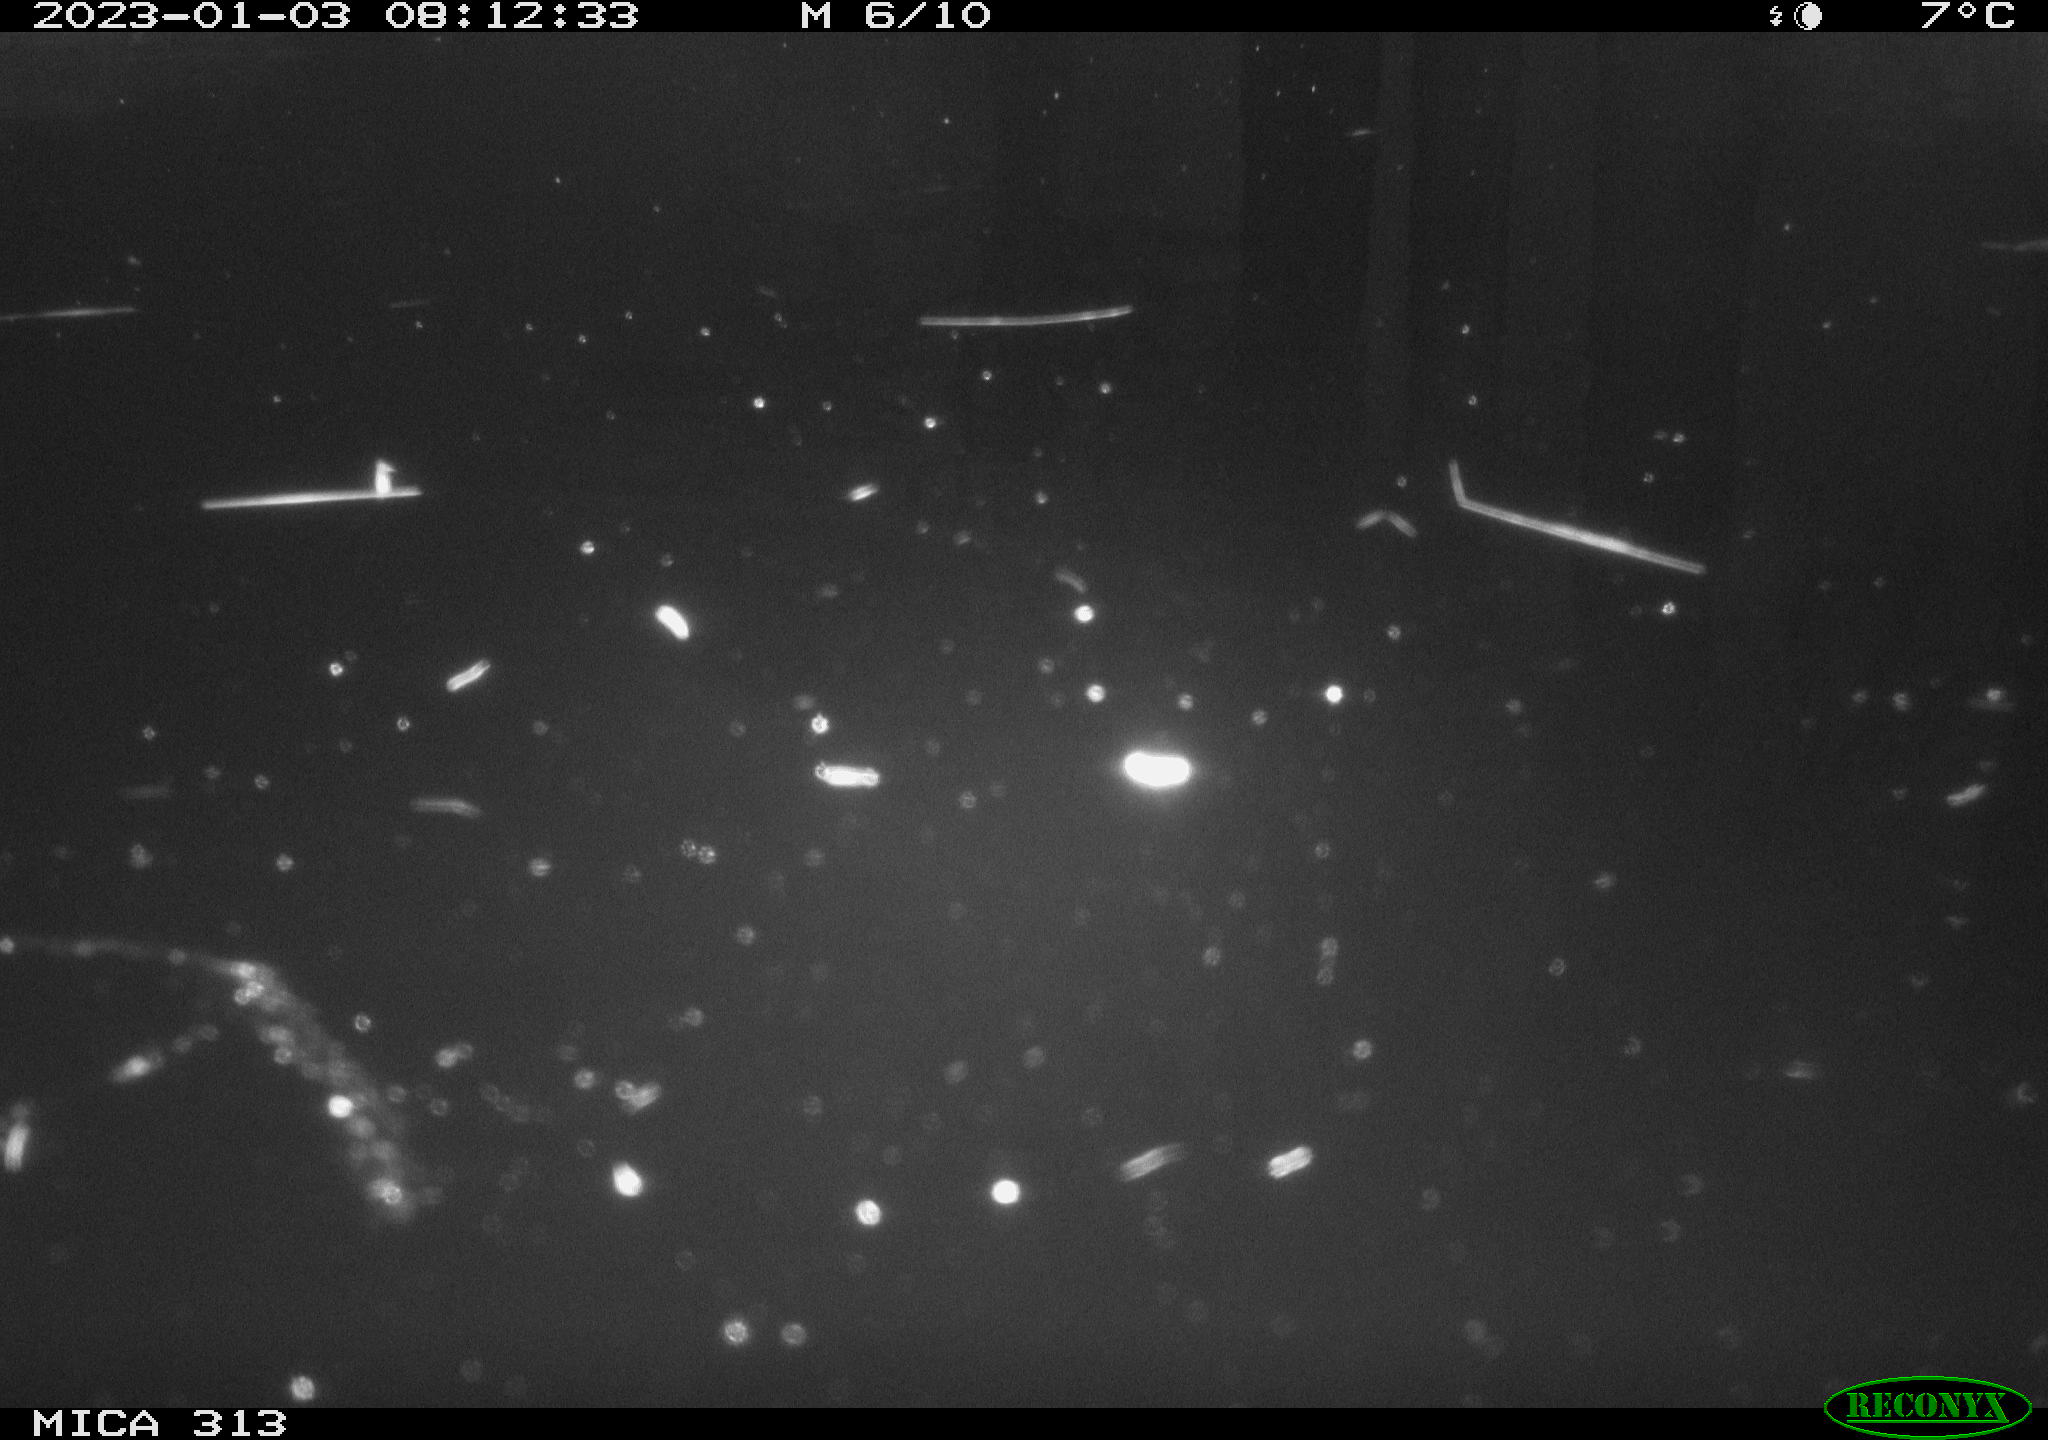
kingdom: Animalia
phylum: Chordata
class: Aves
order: Anseriformes
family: Anatidae
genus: Anas
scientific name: Anas
